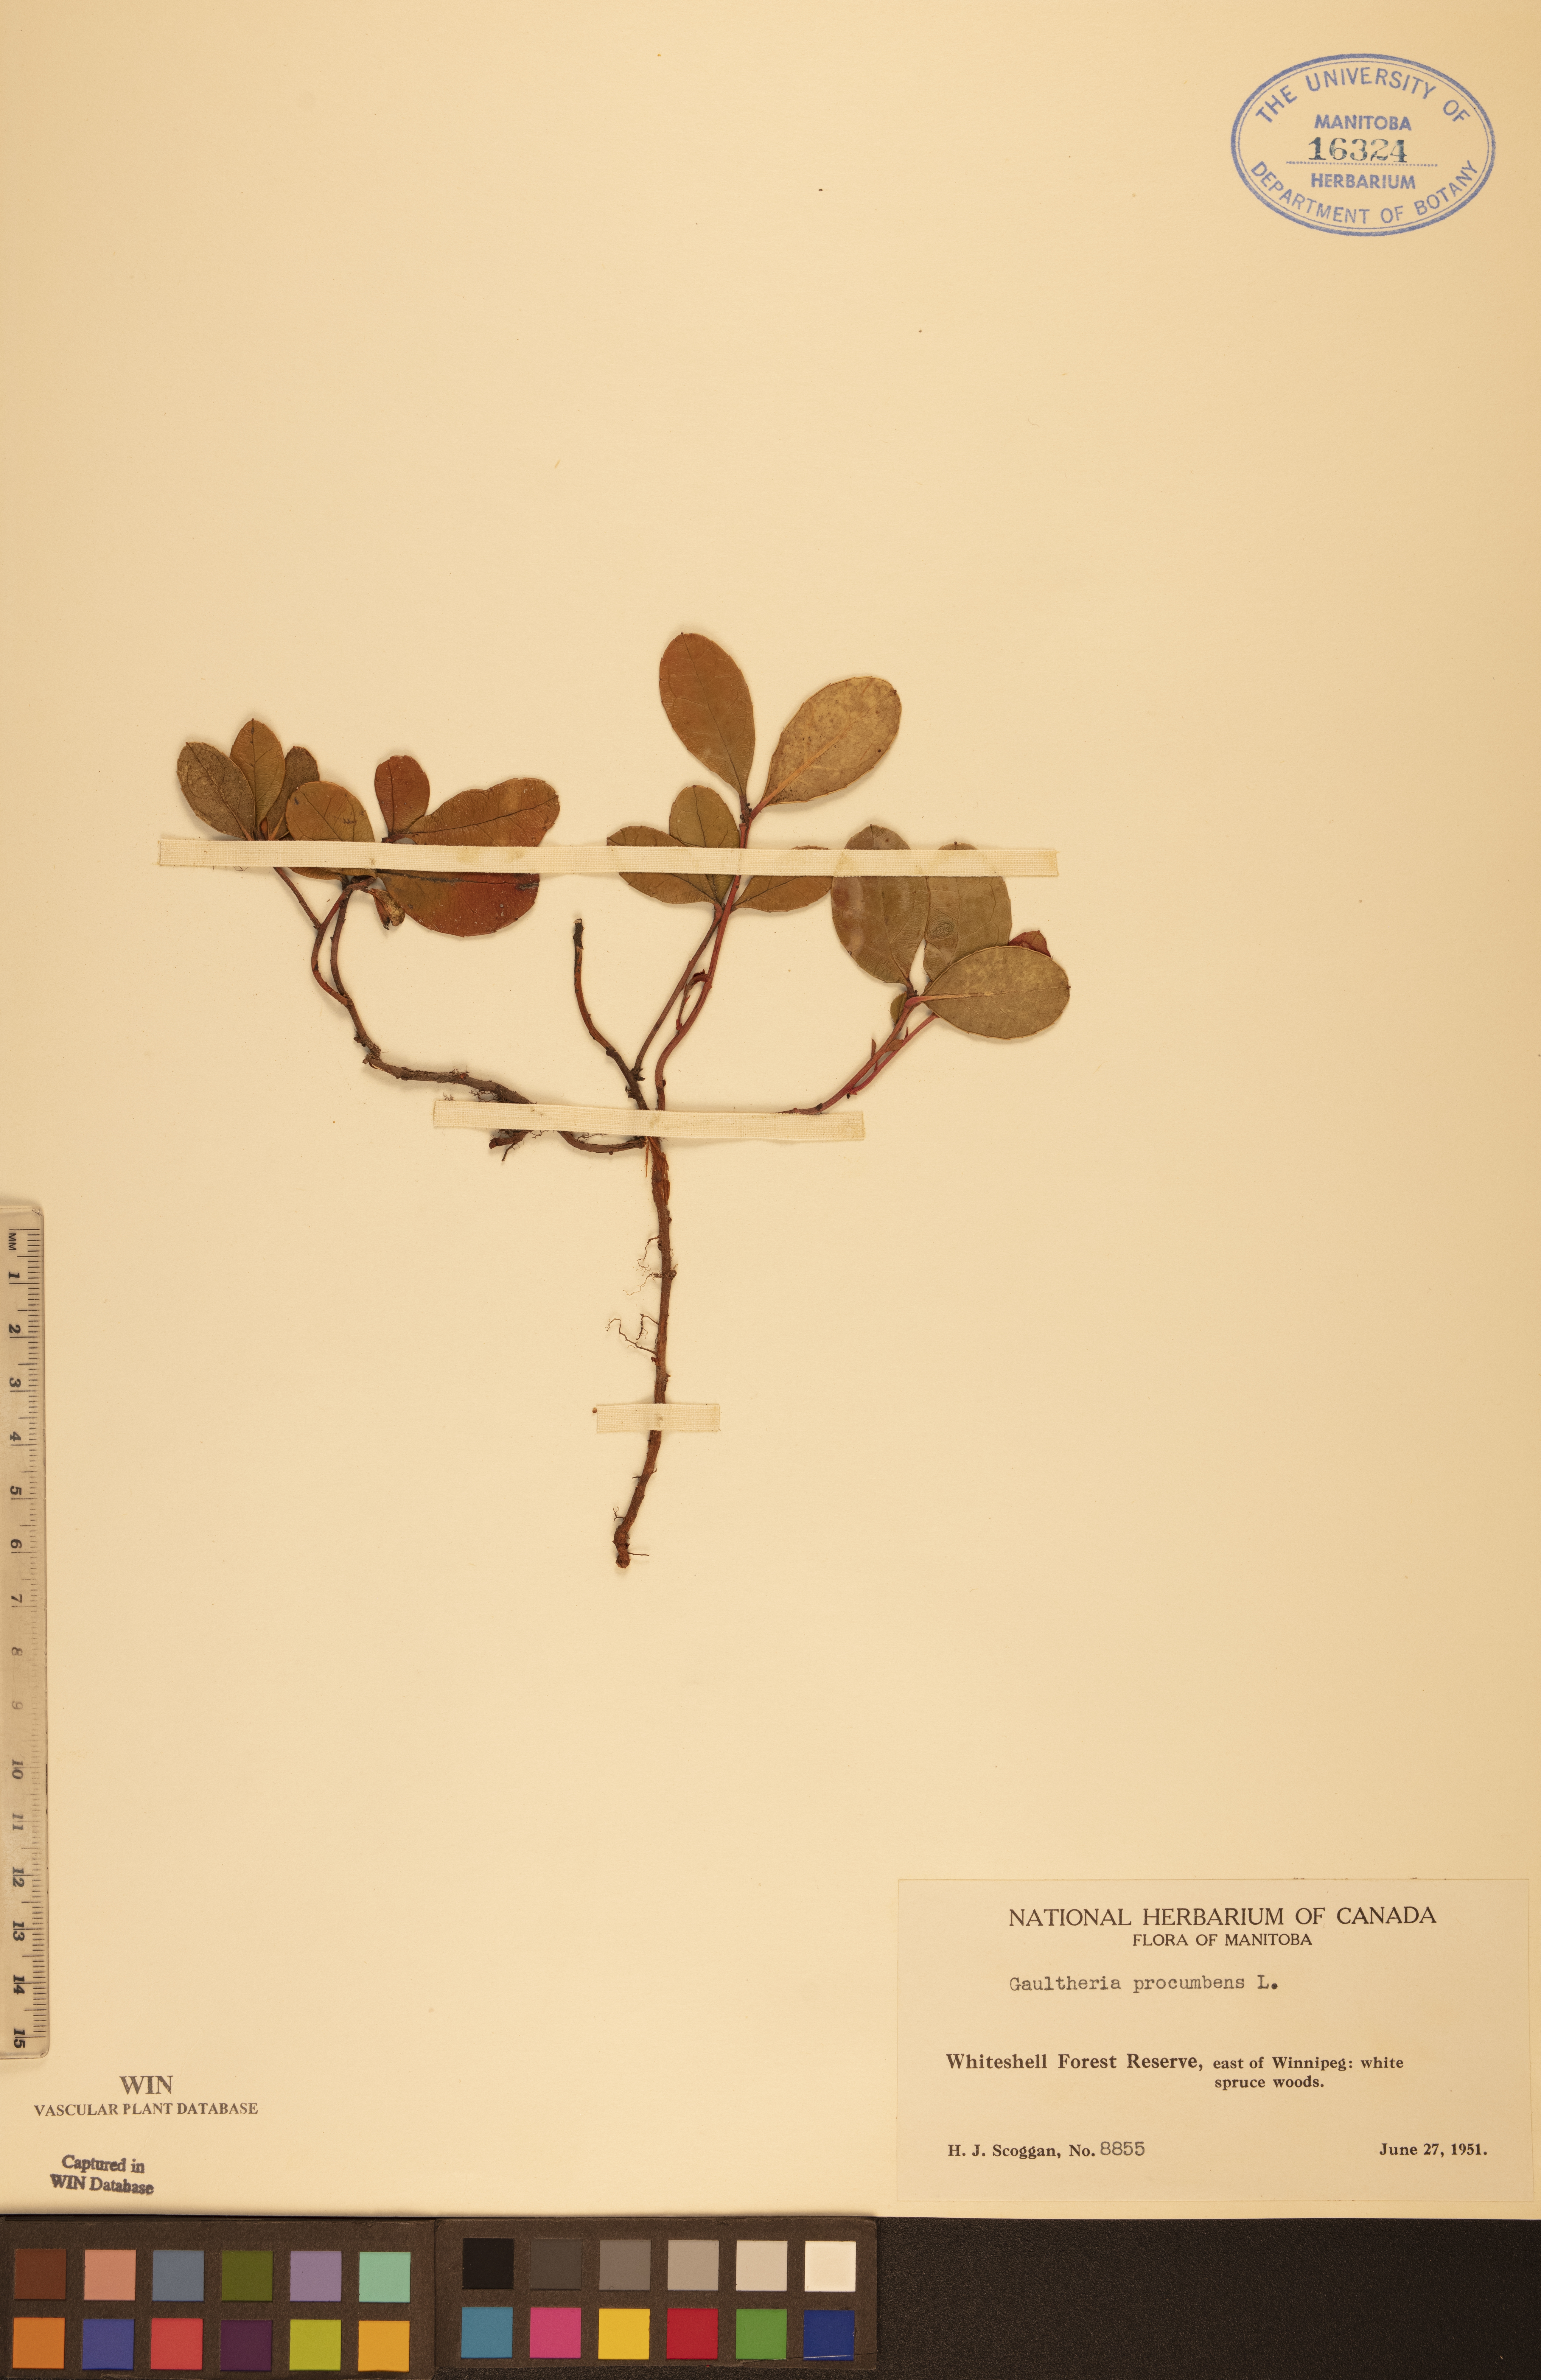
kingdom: Plantae
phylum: Tracheophyta
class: Magnoliopsida
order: Ericales
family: Ericaceae
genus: Gaultheria
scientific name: Gaultheria procumbens
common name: Checkerberry
